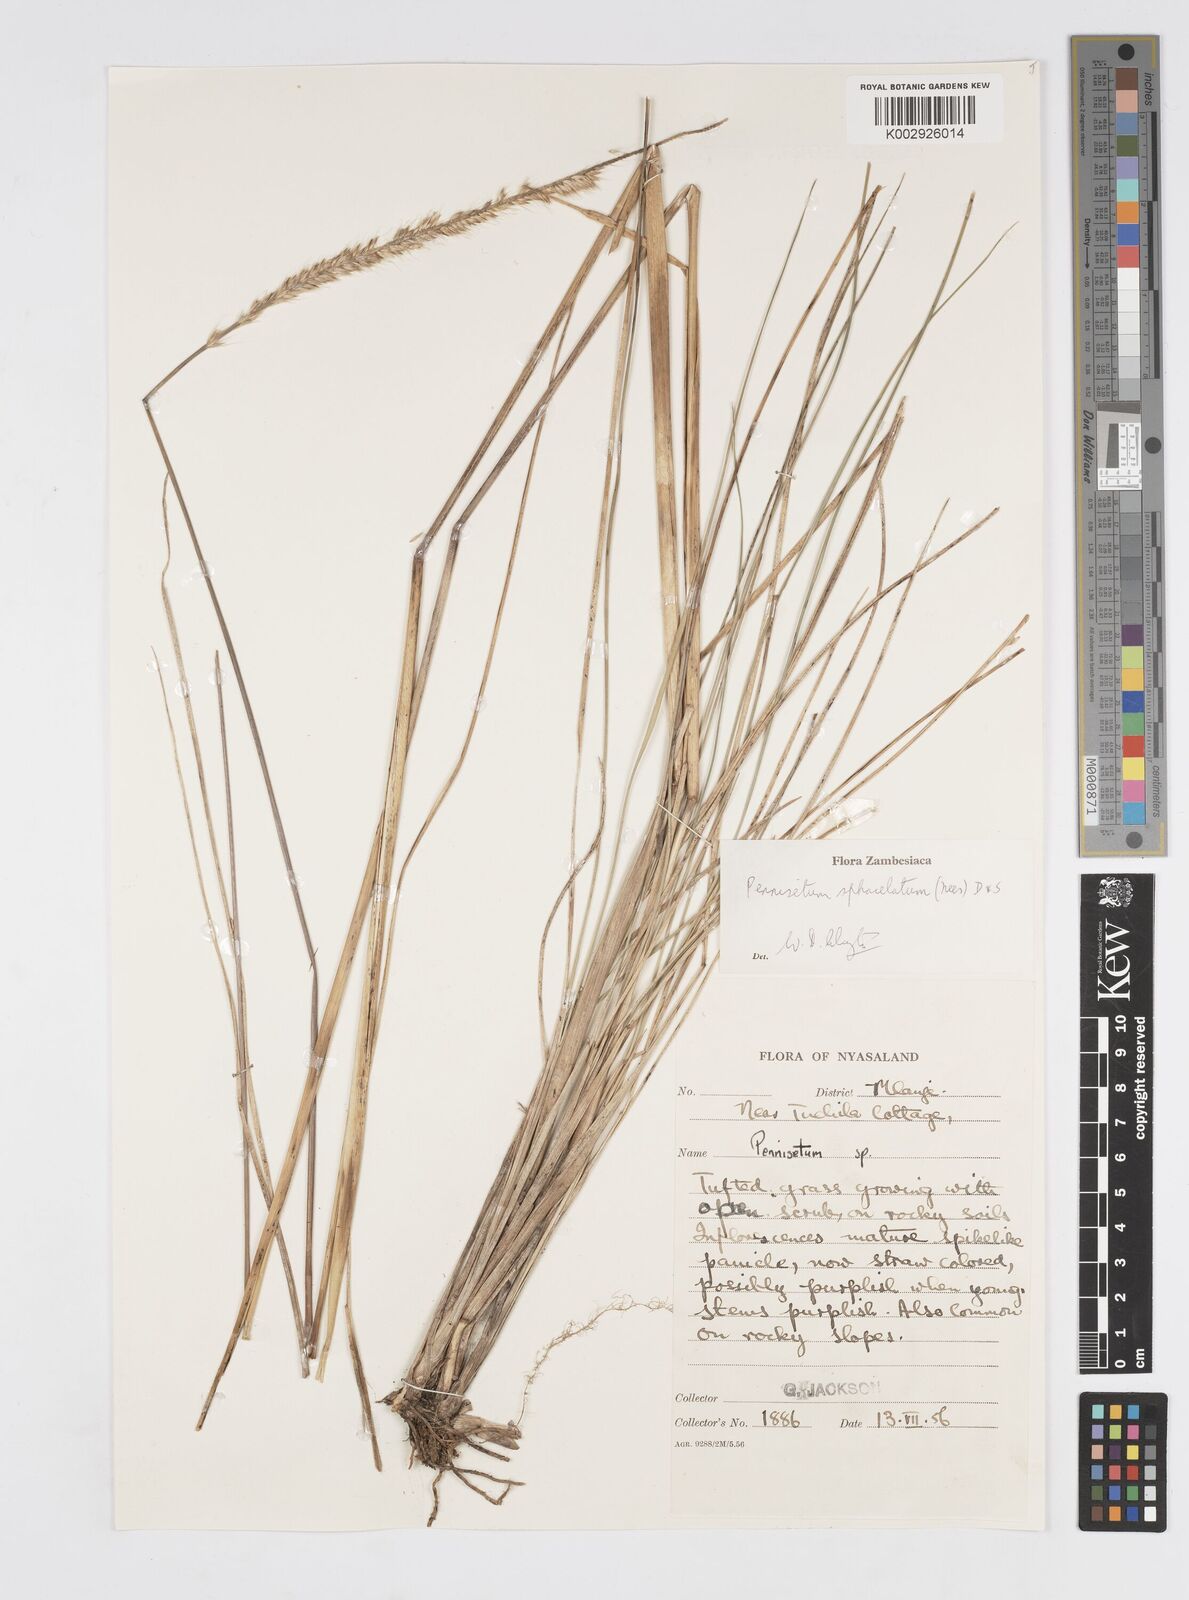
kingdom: Plantae
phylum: Tracheophyta
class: Liliopsida
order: Poales
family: Poaceae
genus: Cenchrus
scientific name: Cenchrus sphacelatus
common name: Bulgras
